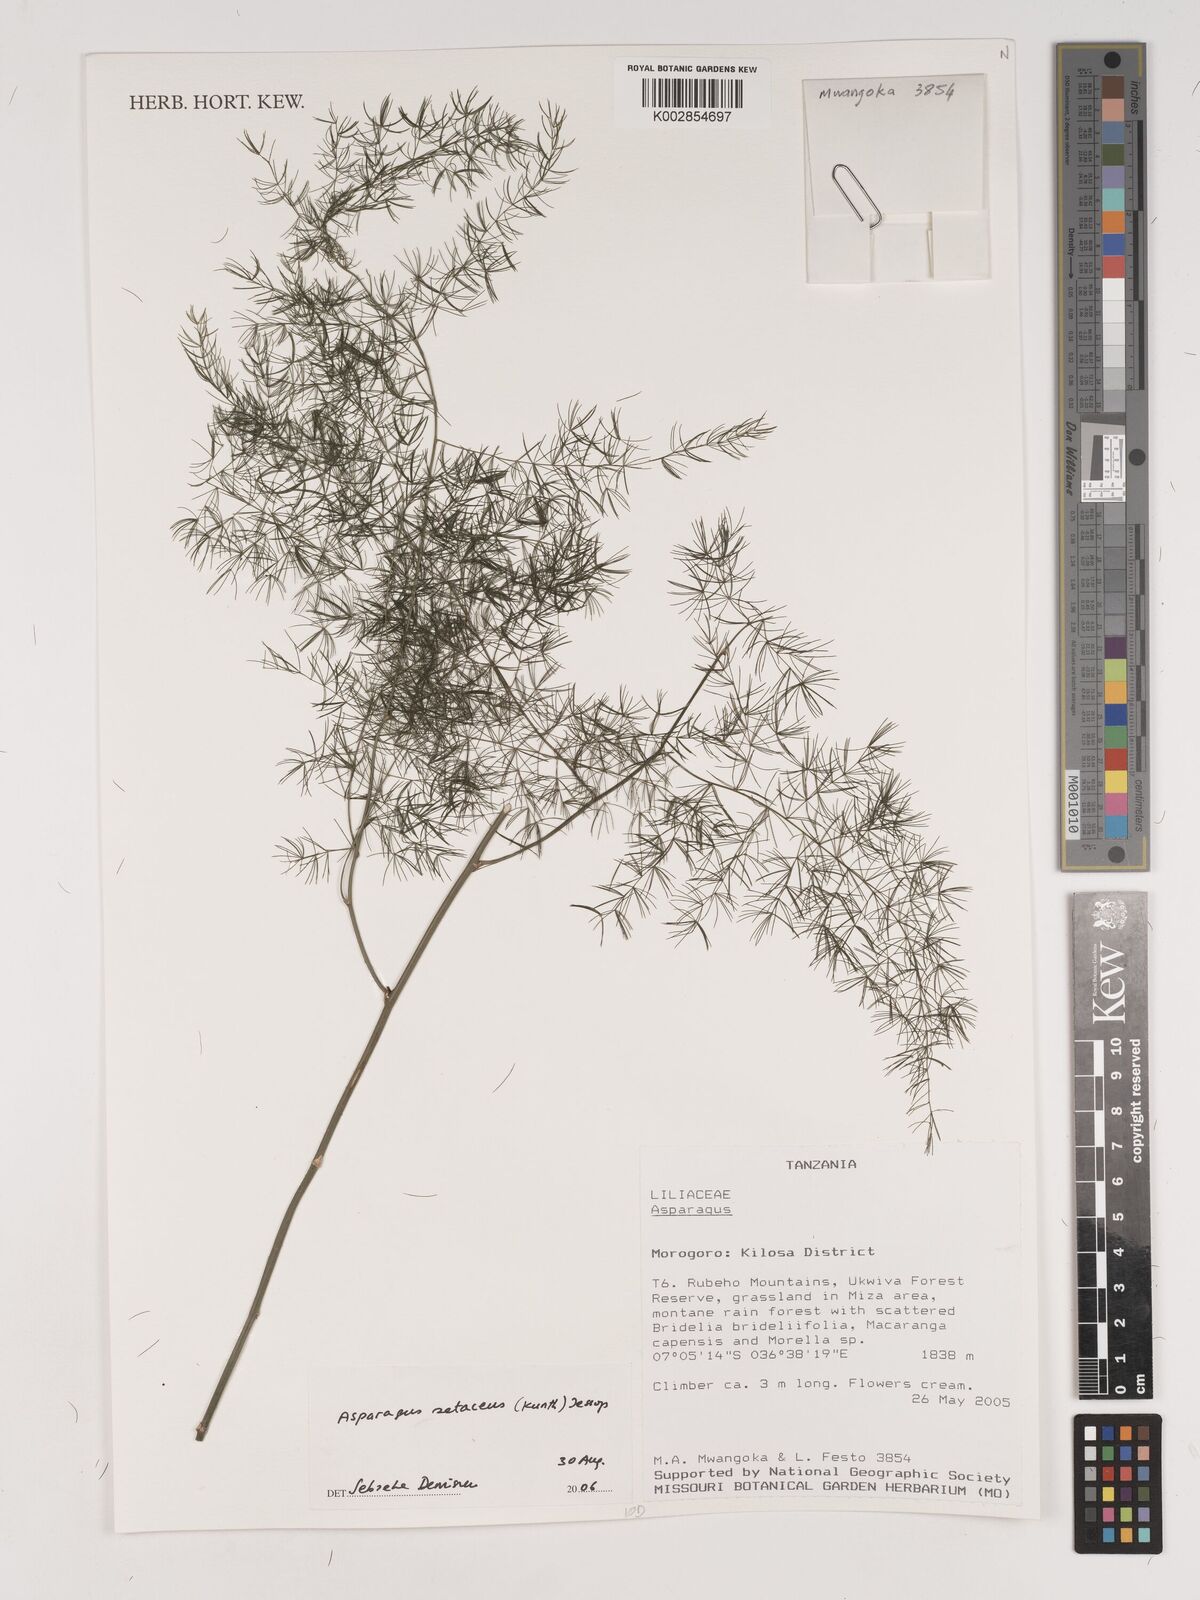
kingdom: Plantae
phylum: Tracheophyta
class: Liliopsida
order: Asparagales
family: Asparagaceae
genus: Asparagus
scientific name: Asparagus setaceus
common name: Common asparagus fern
